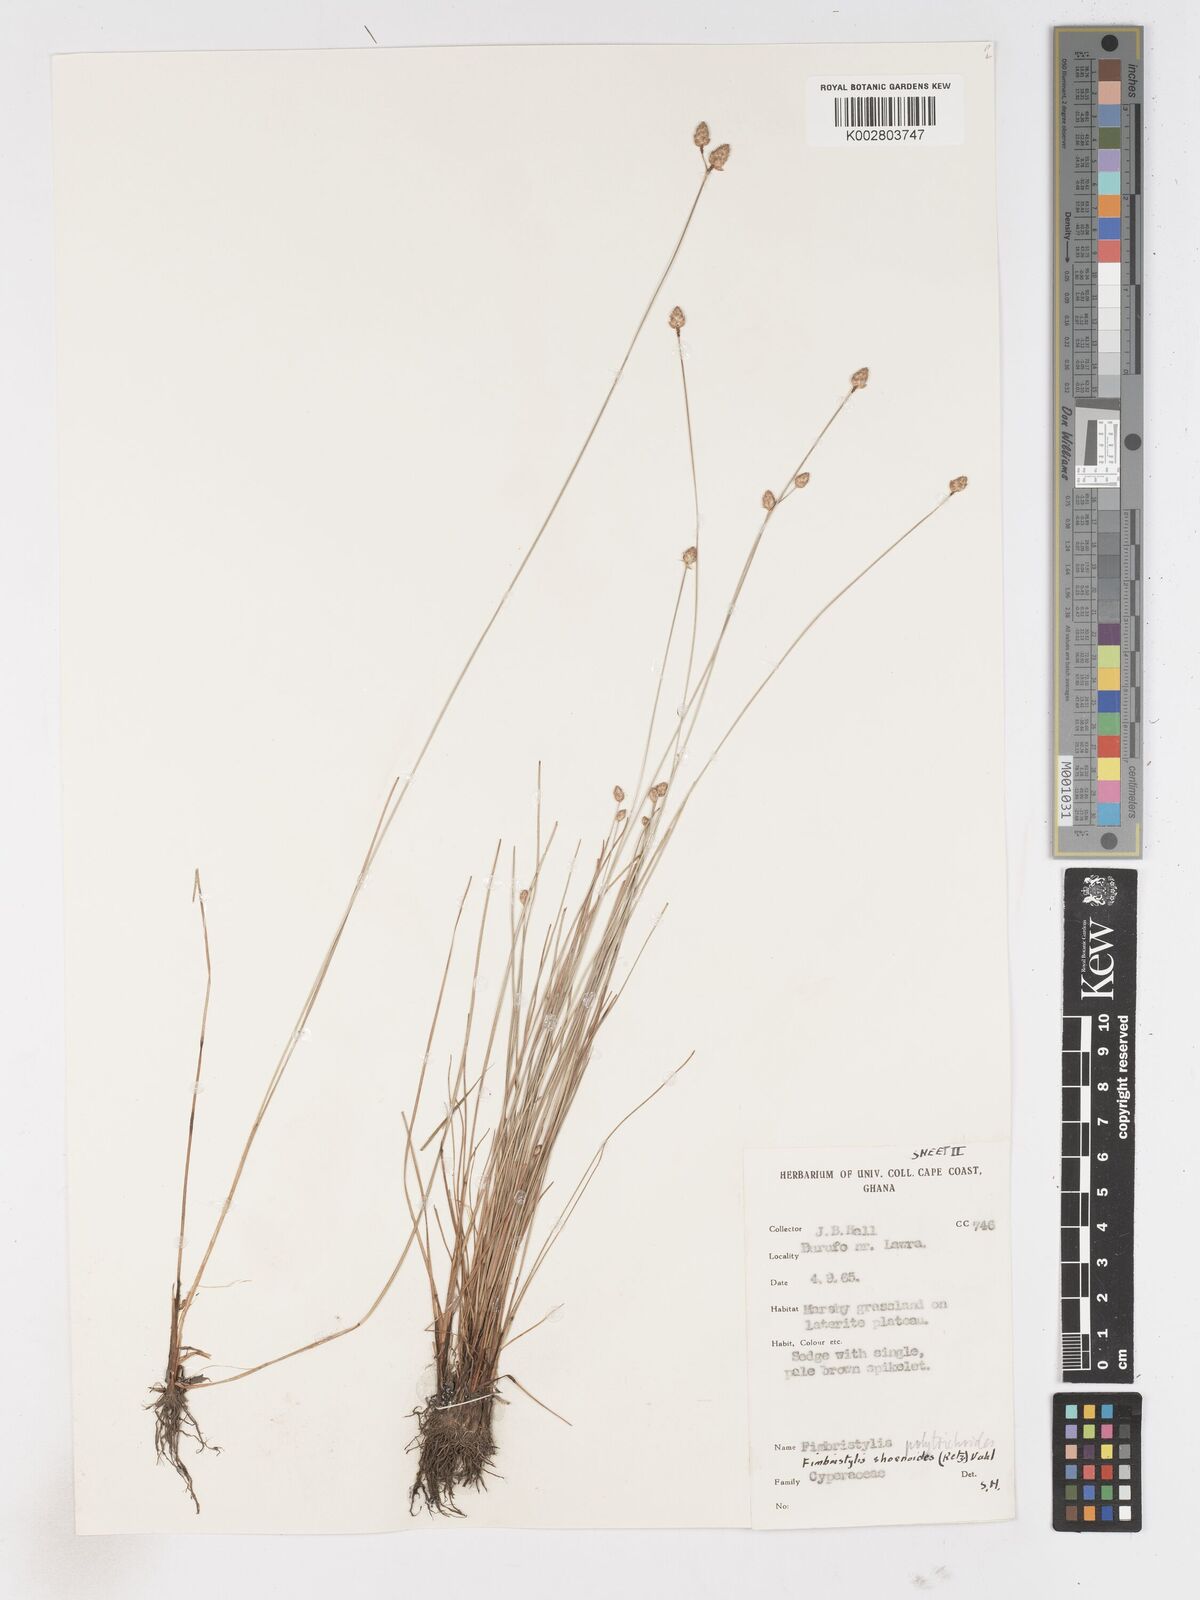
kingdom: Plantae
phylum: Tracheophyta
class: Liliopsida
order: Poales
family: Cyperaceae
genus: Fimbristylis
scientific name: Fimbristylis schoenoides
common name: Ditch fimbry
